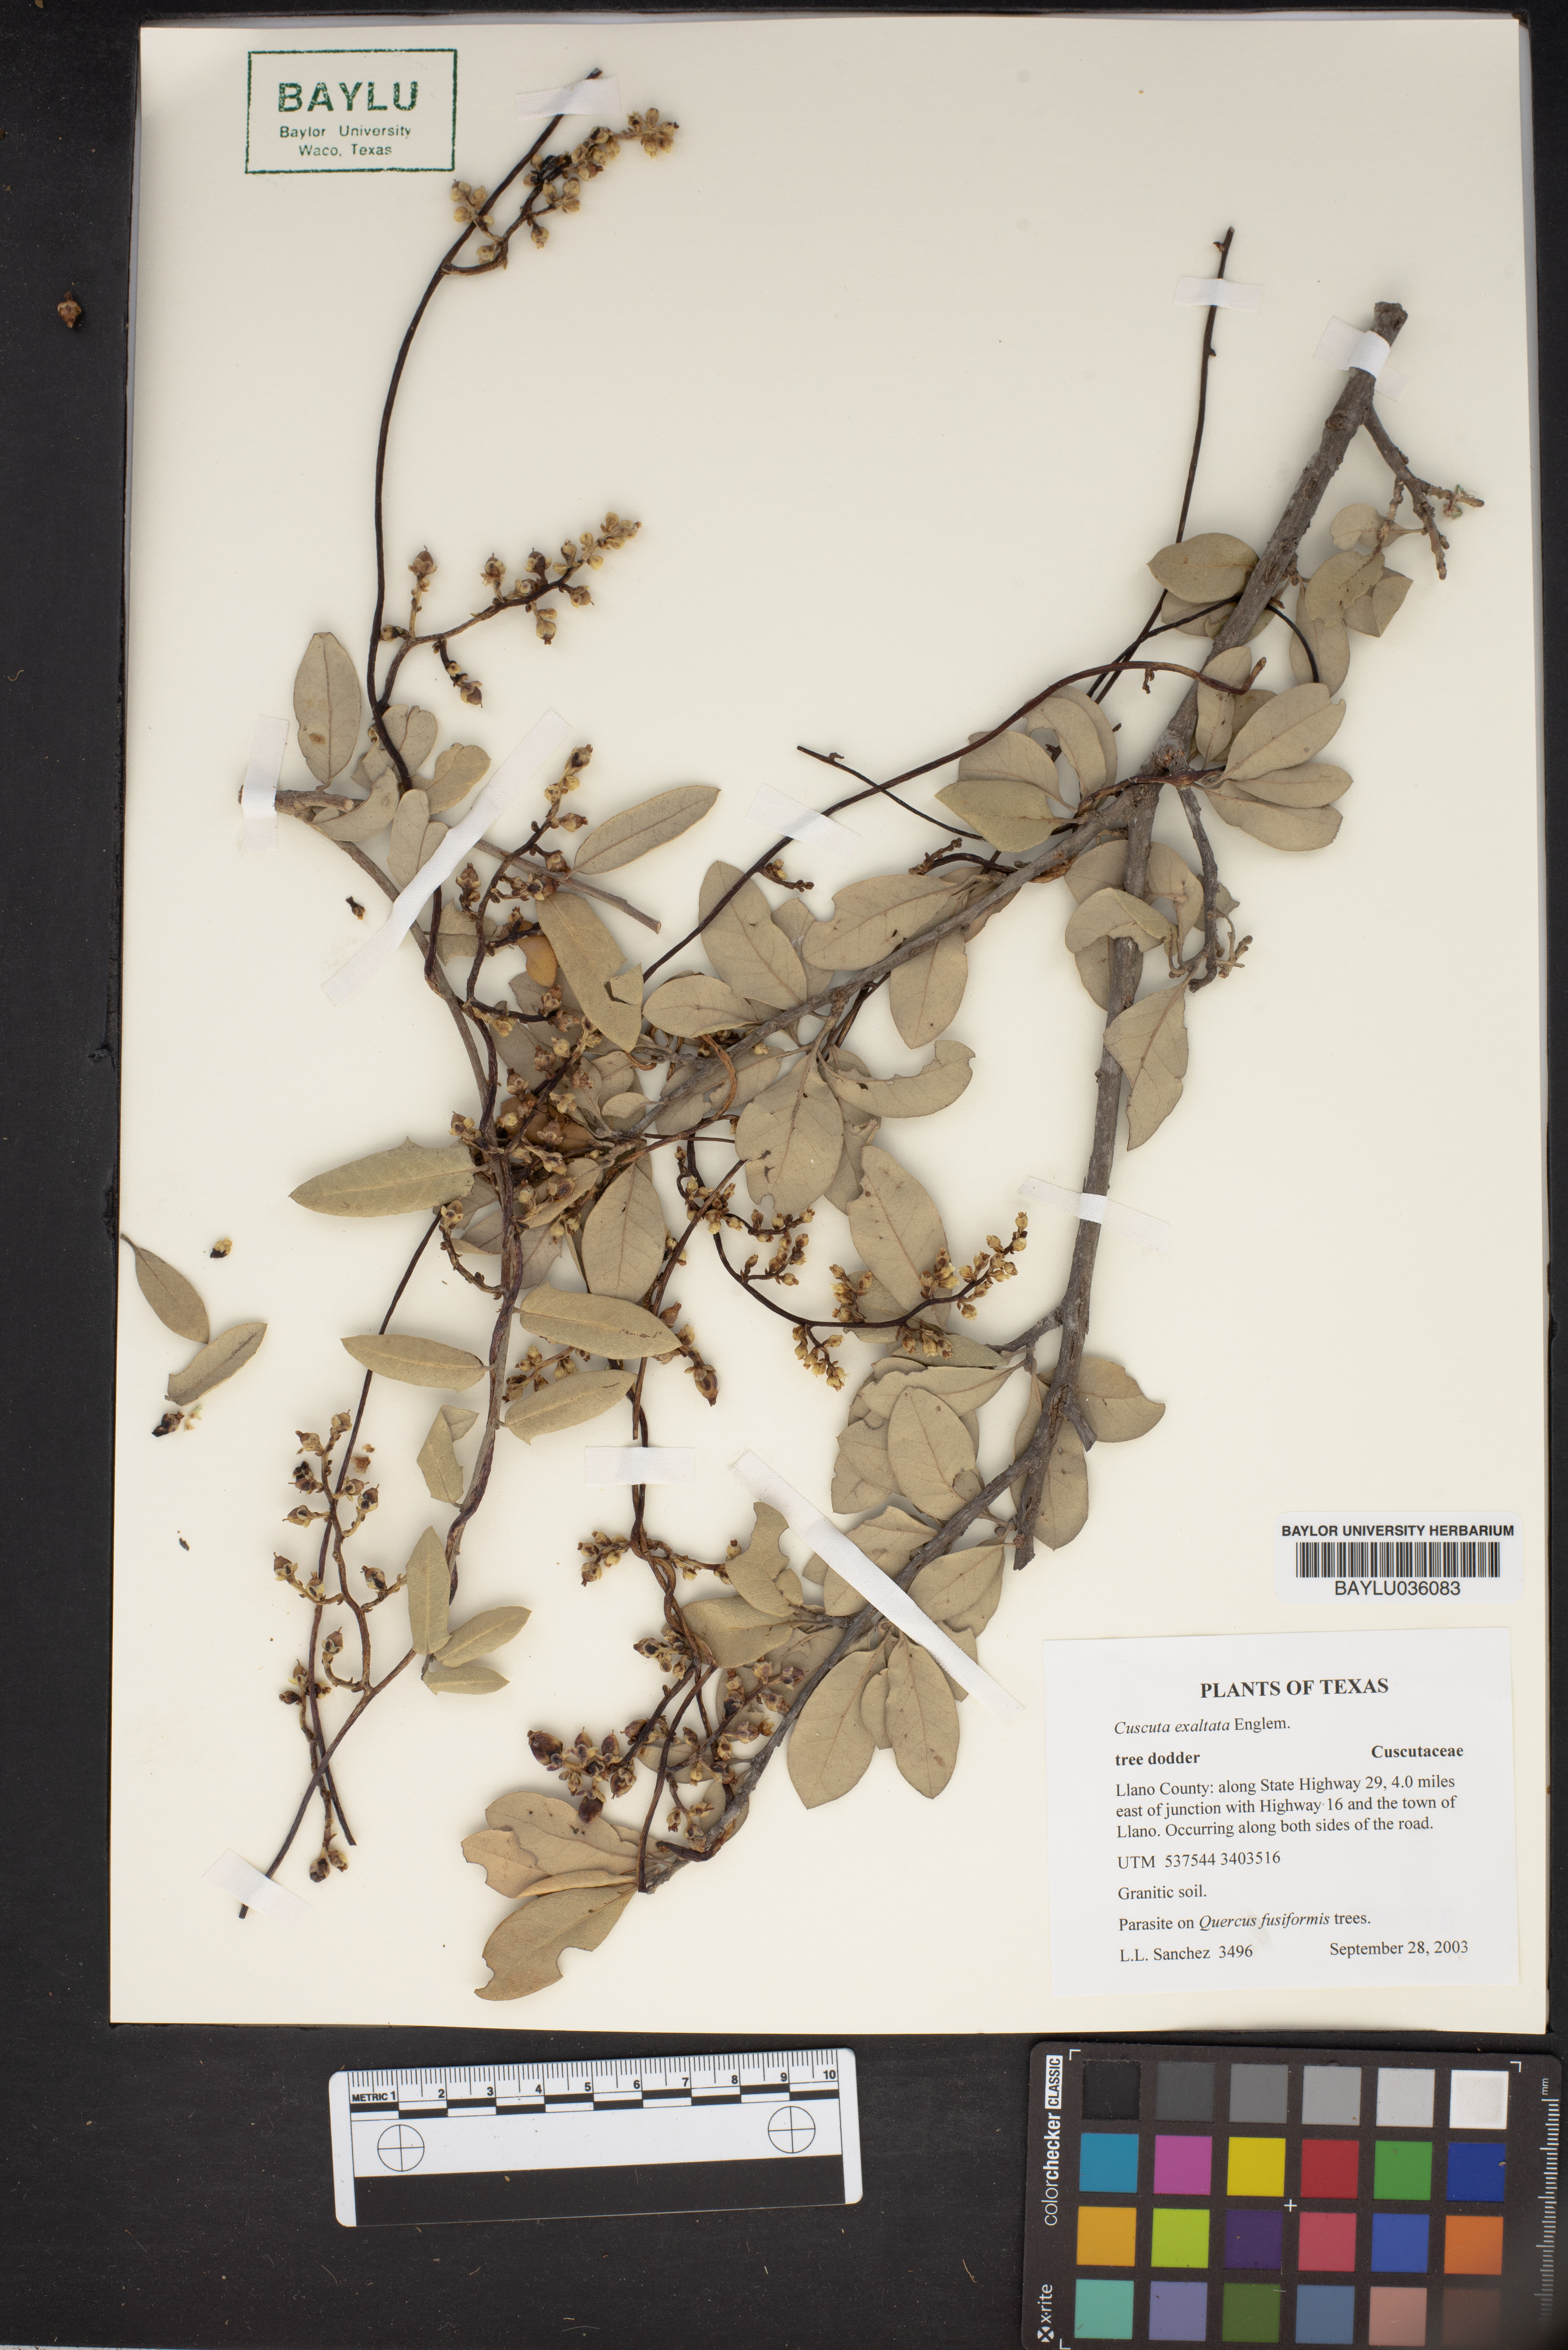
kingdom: Plantae
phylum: Tracheophyta
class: Magnoliopsida
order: Solanales
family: Convolvulaceae
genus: Cuscuta
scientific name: Cuscuta exaltata
